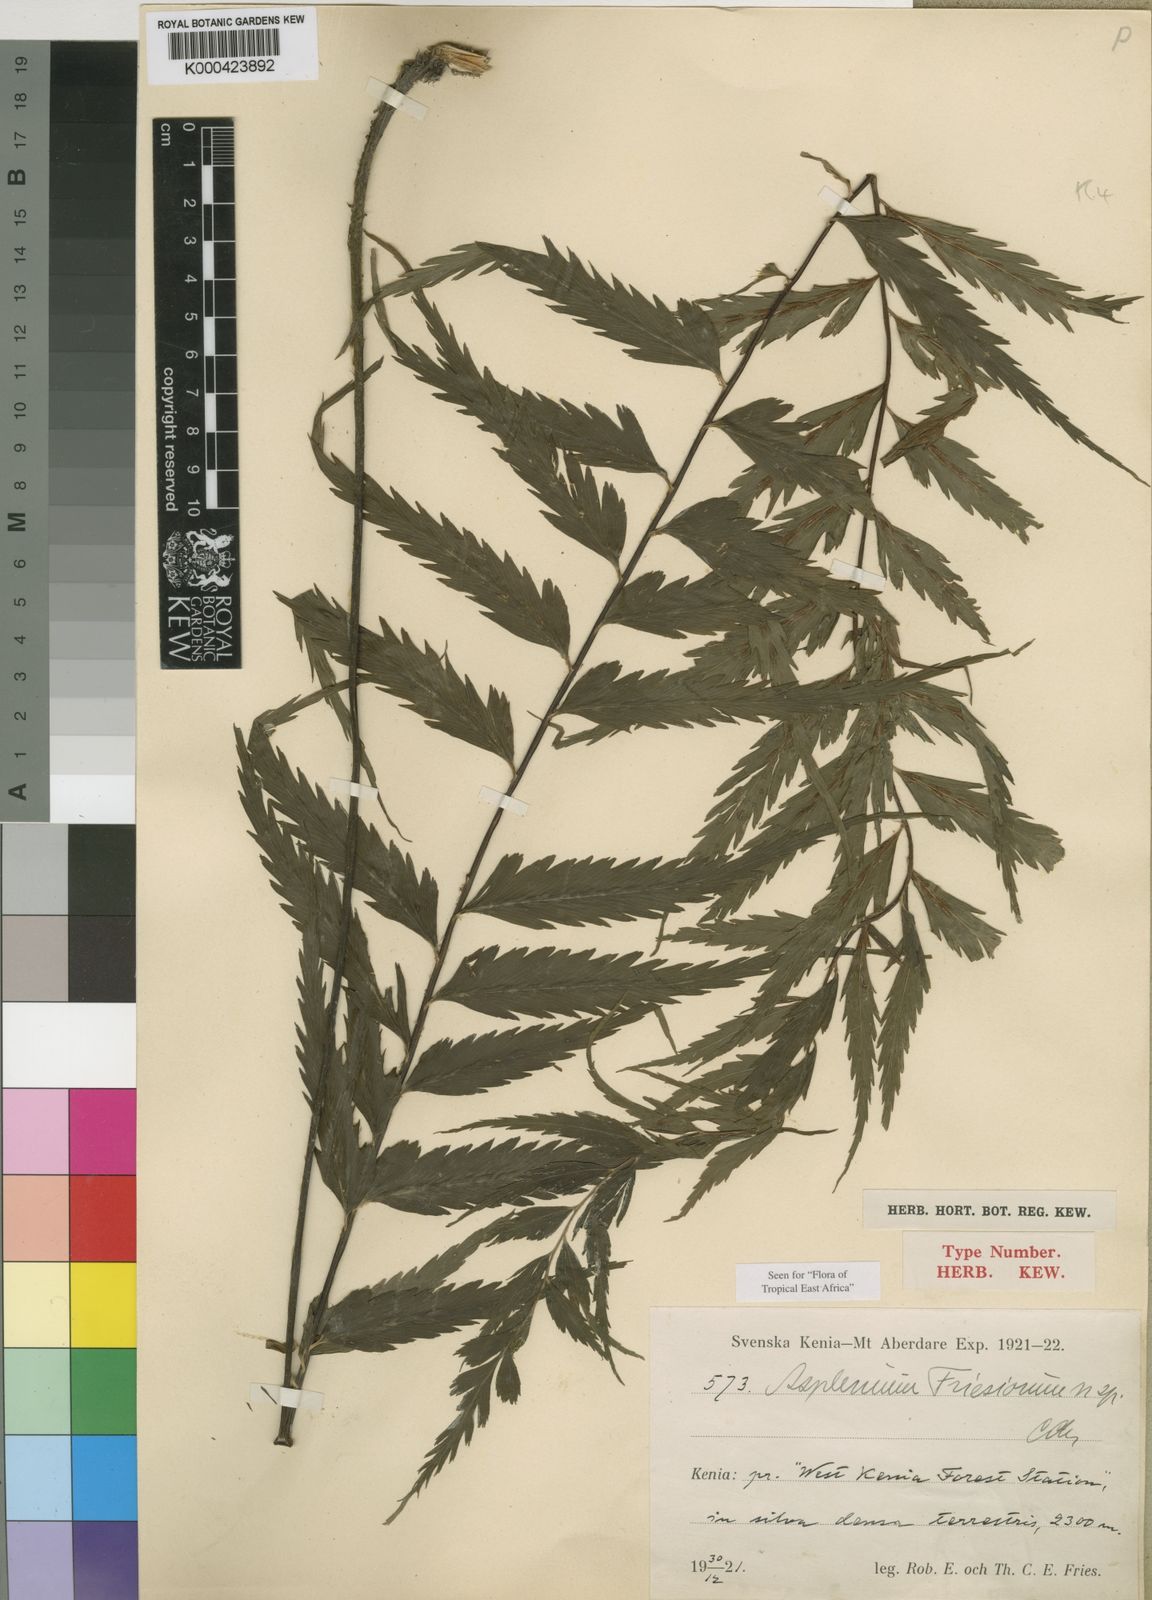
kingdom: Plantae
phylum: Tracheophyta
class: Polypodiopsida
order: Polypodiales
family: Aspleniaceae
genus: Asplenium
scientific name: Asplenium gueinzianum
